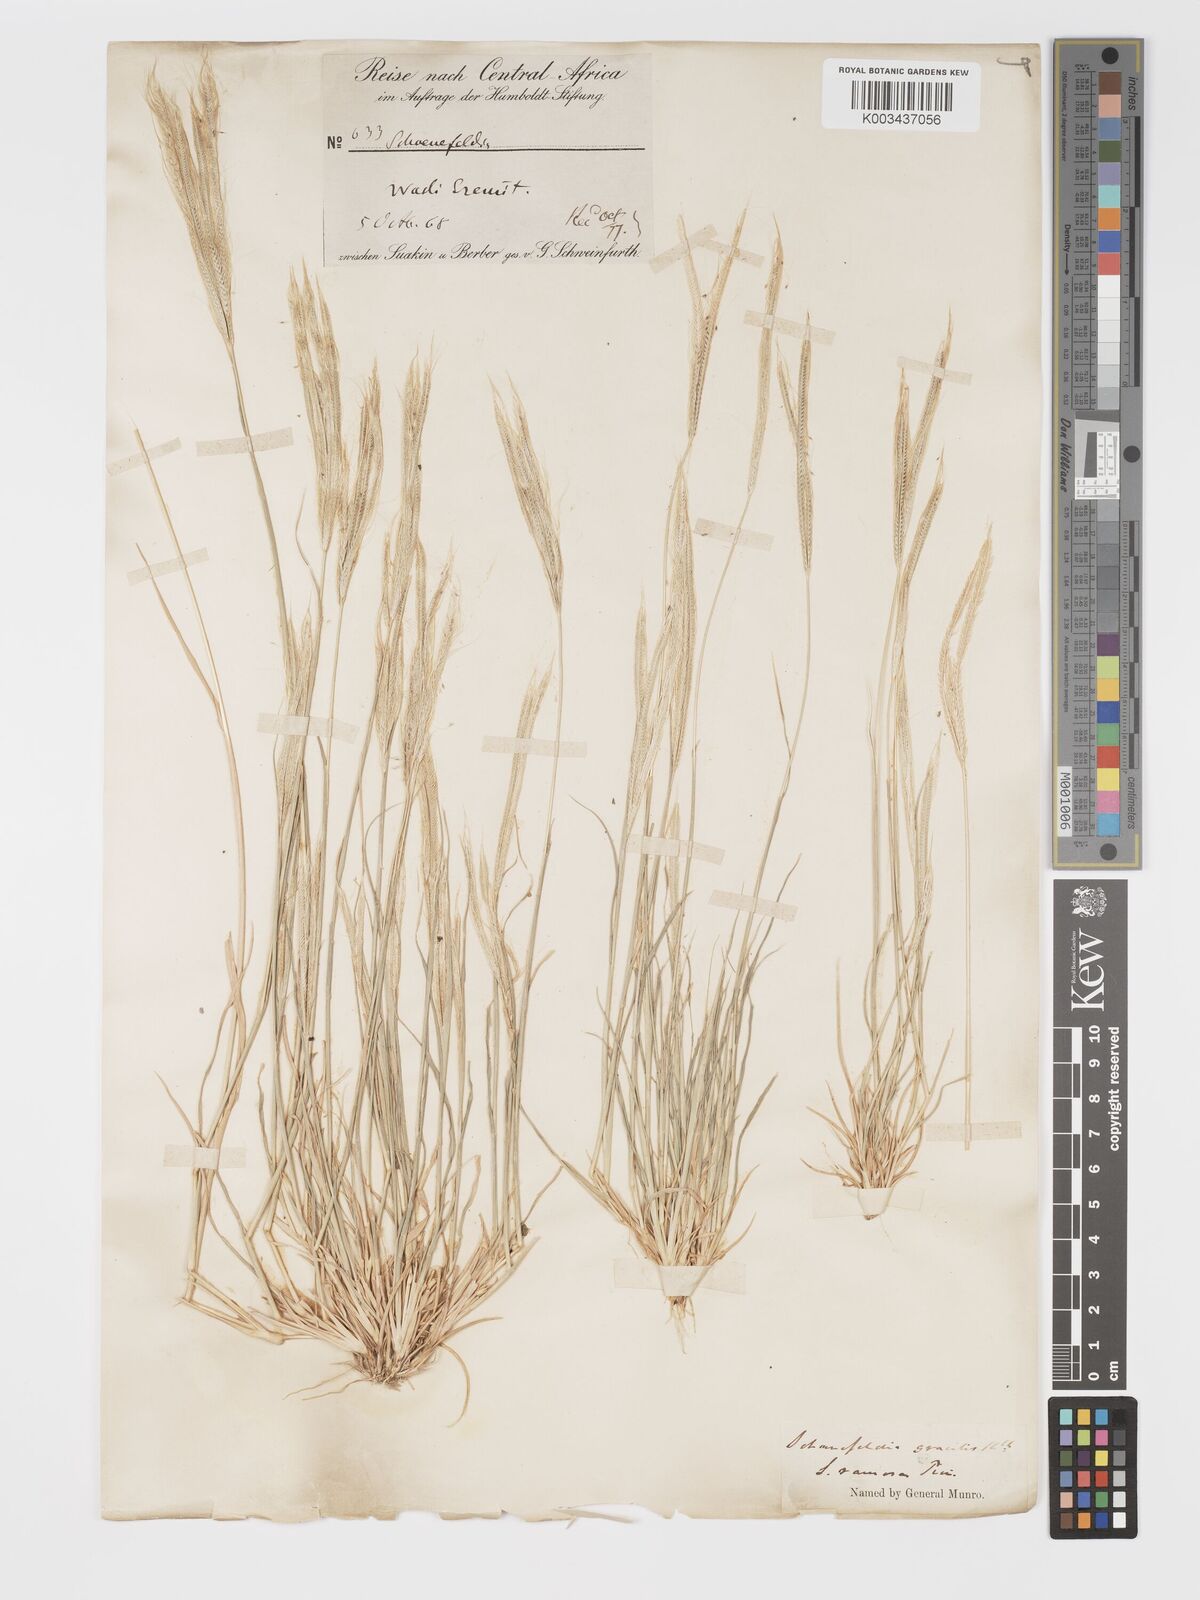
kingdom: Plantae
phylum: Tracheophyta
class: Liliopsida
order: Poales
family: Poaceae
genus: Schoenefeldia
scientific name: Schoenefeldia gracilis
